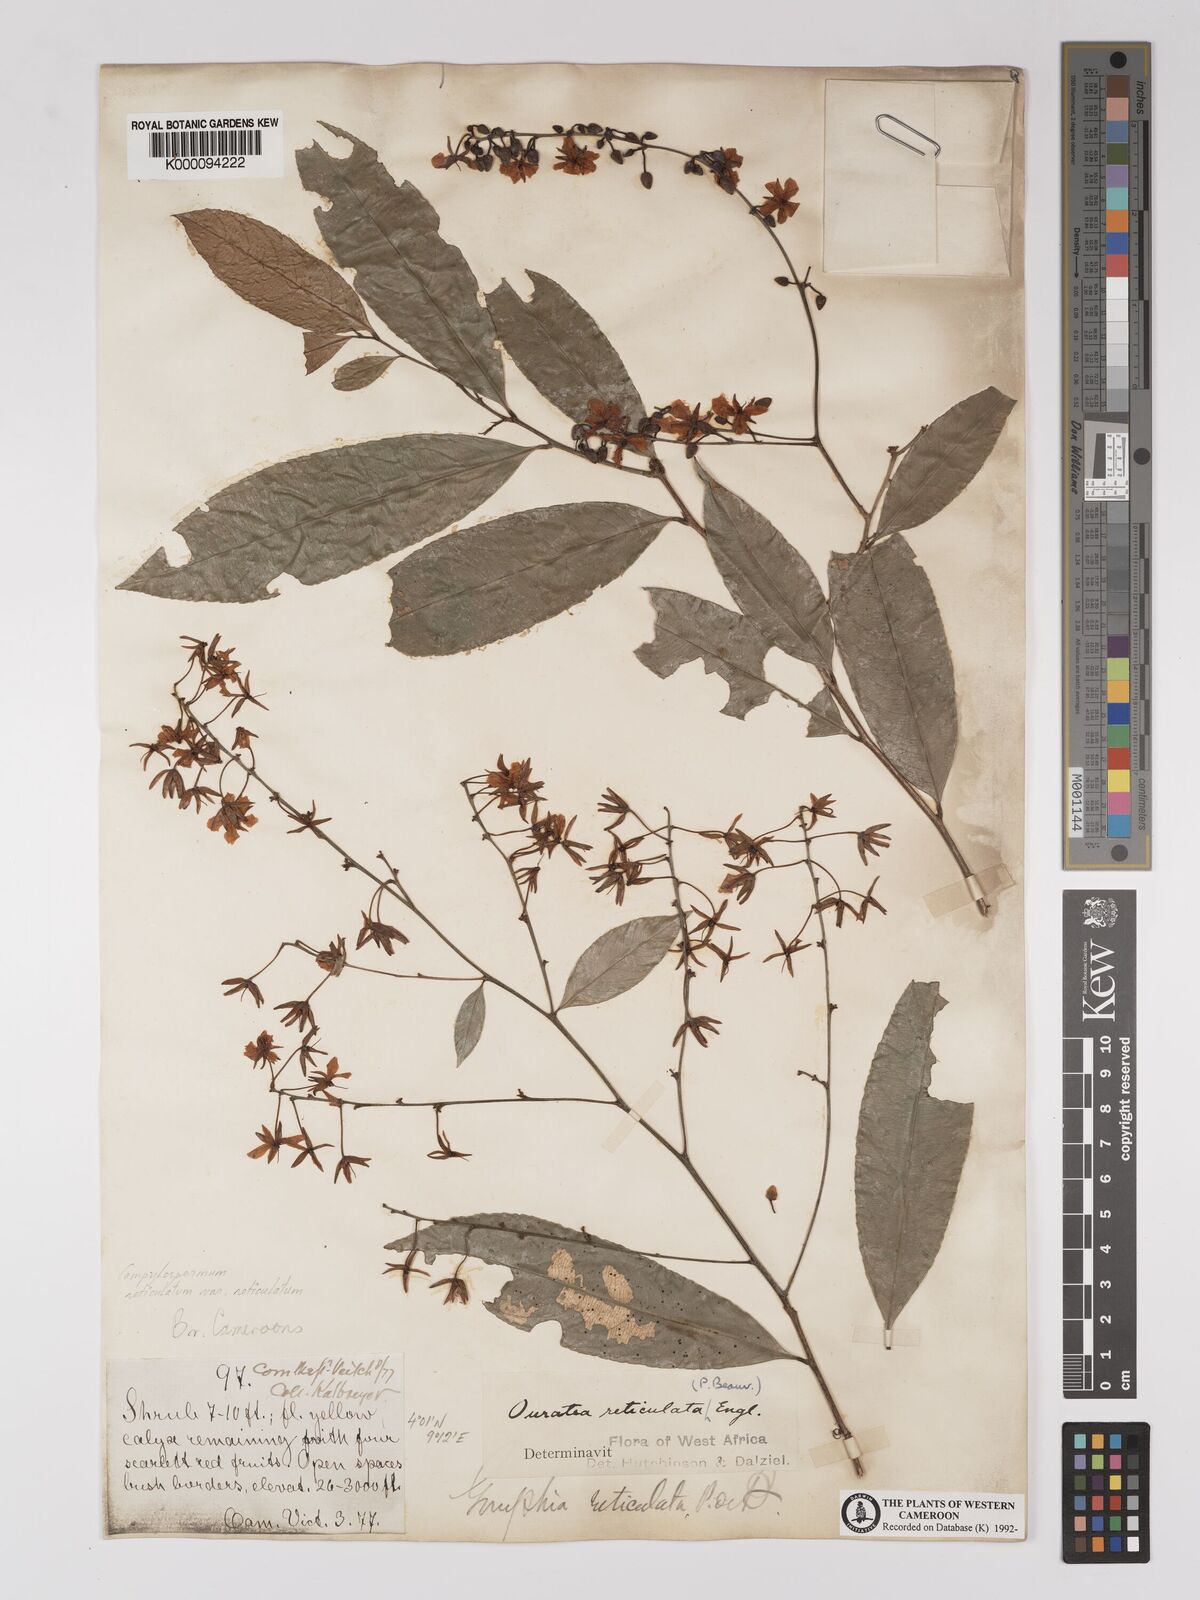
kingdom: Plantae
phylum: Tracheophyta
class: Magnoliopsida
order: Malpighiales
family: Ochnaceae
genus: Campylospermum
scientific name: Campylospermum reticulatum
